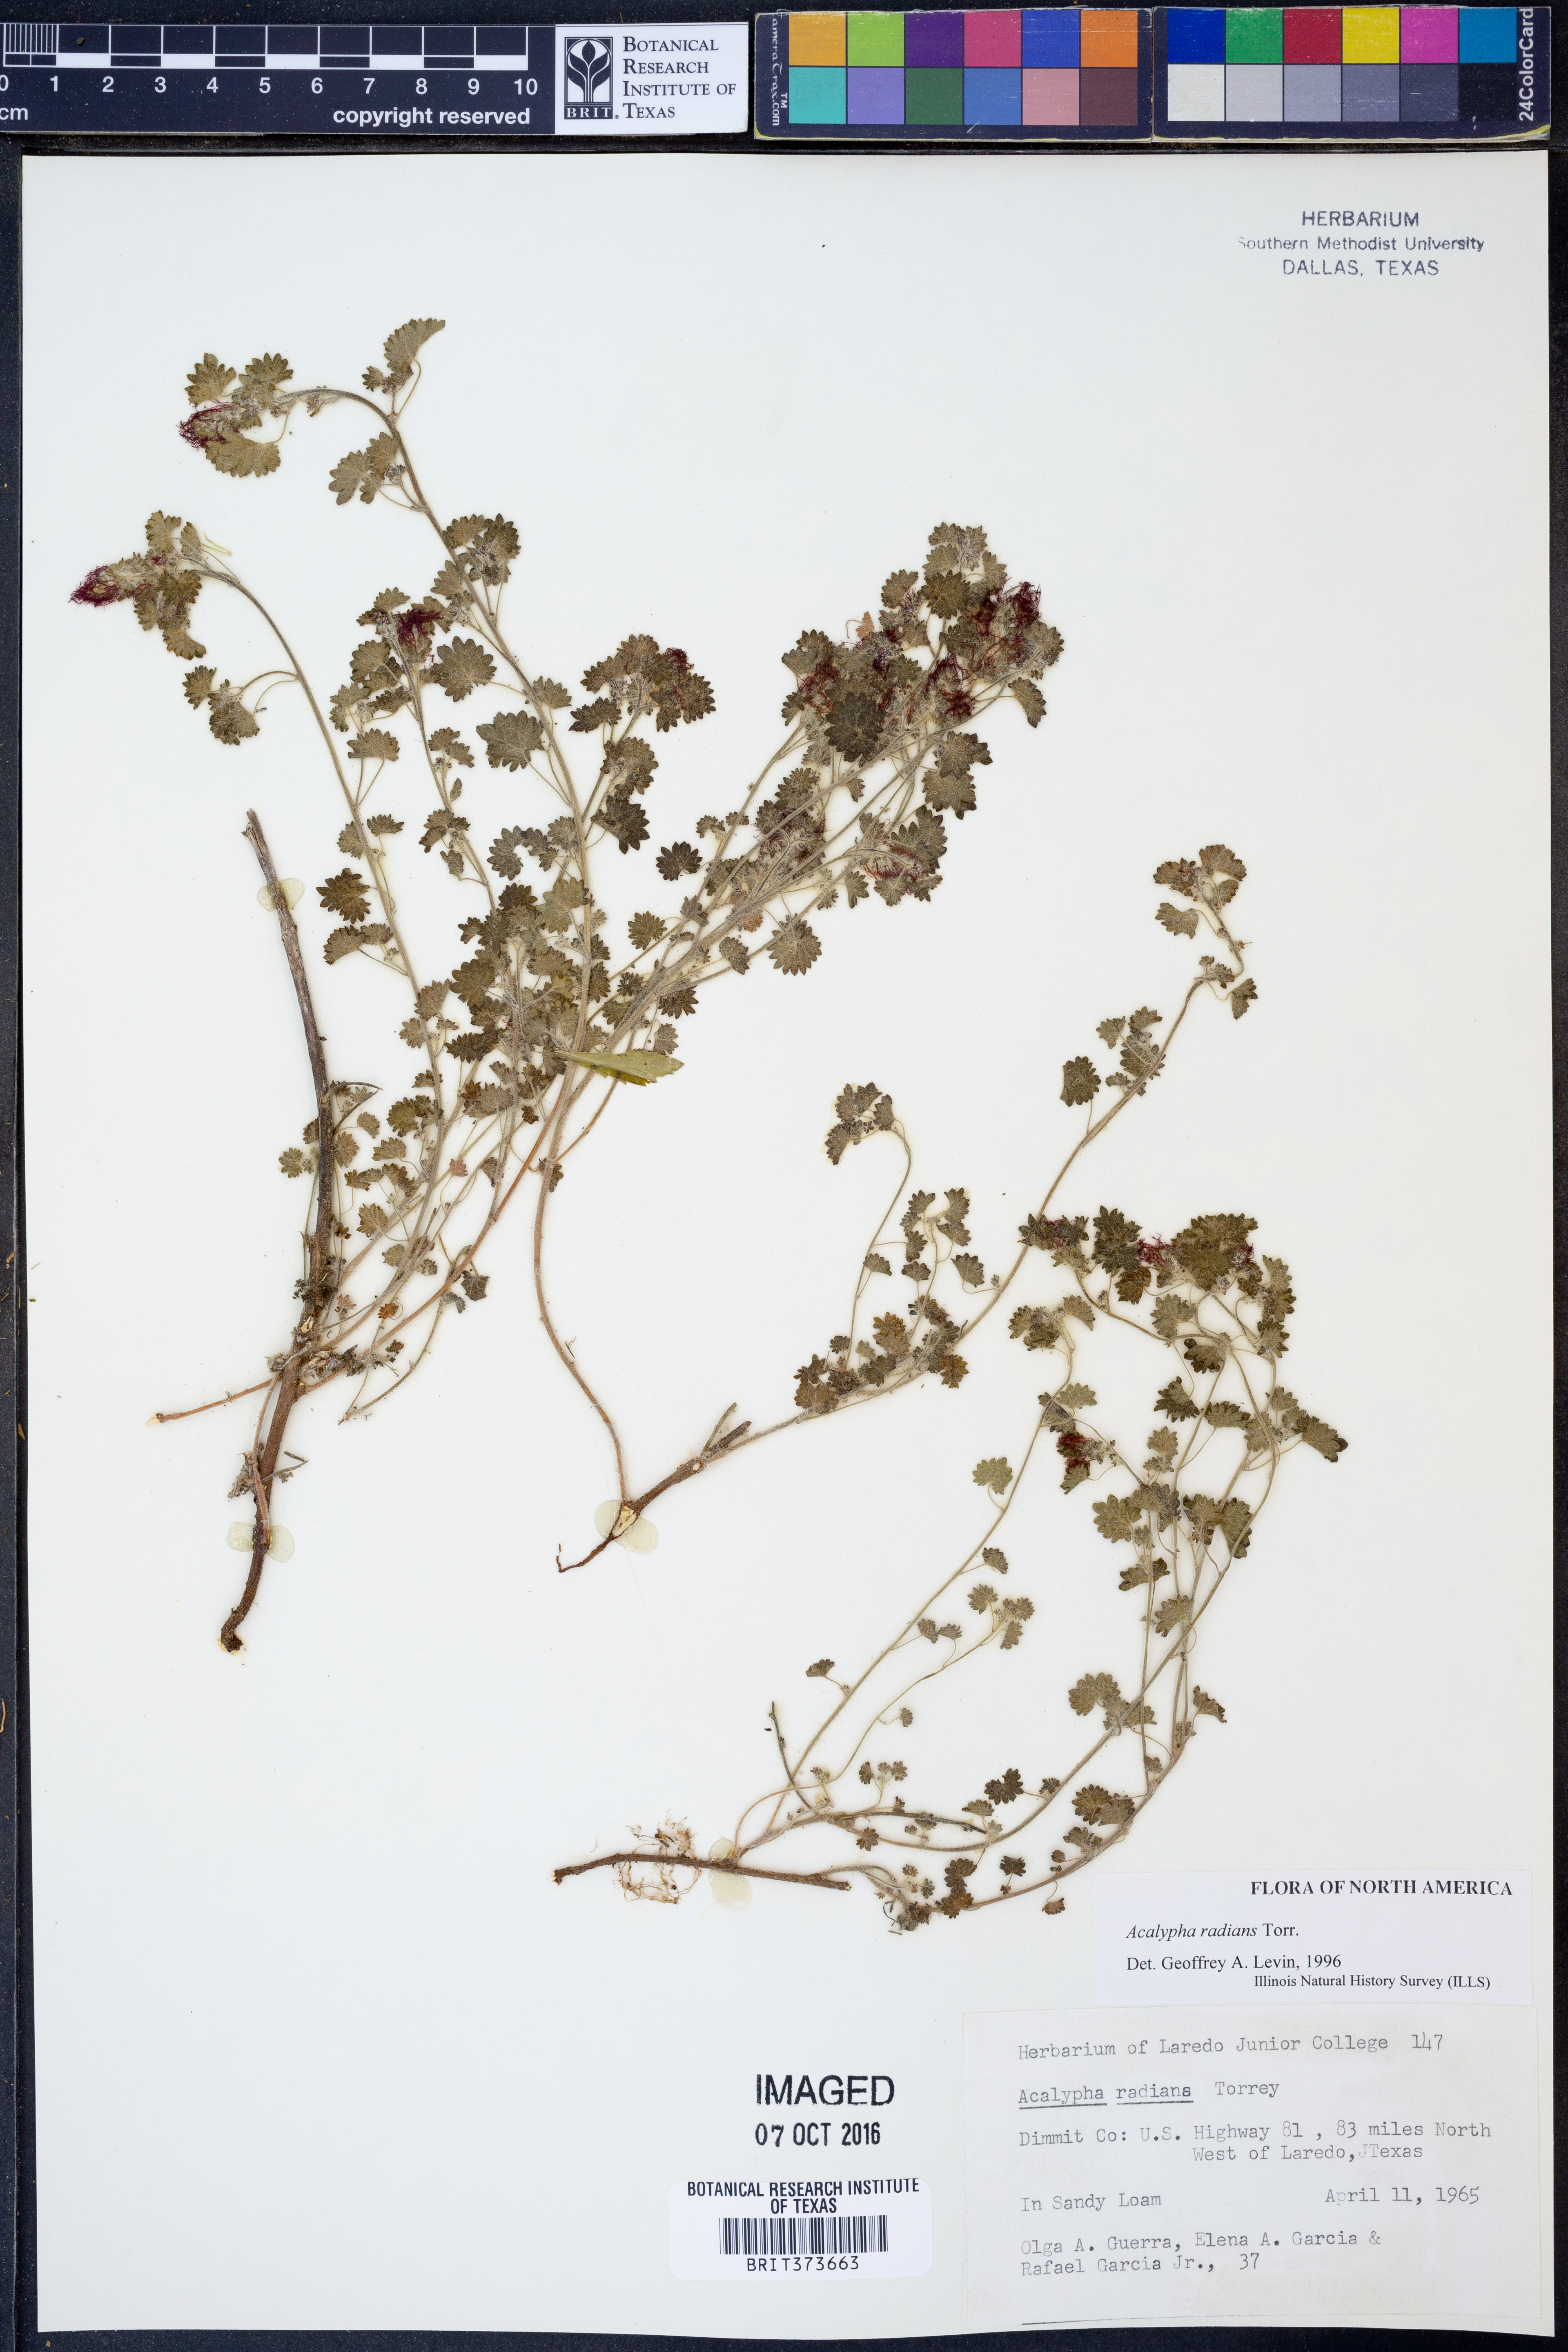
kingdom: Plantae
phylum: Tracheophyta
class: Magnoliopsida
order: Malpighiales
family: Euphorbiaceae
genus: Acalypha
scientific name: Acalypha radians
